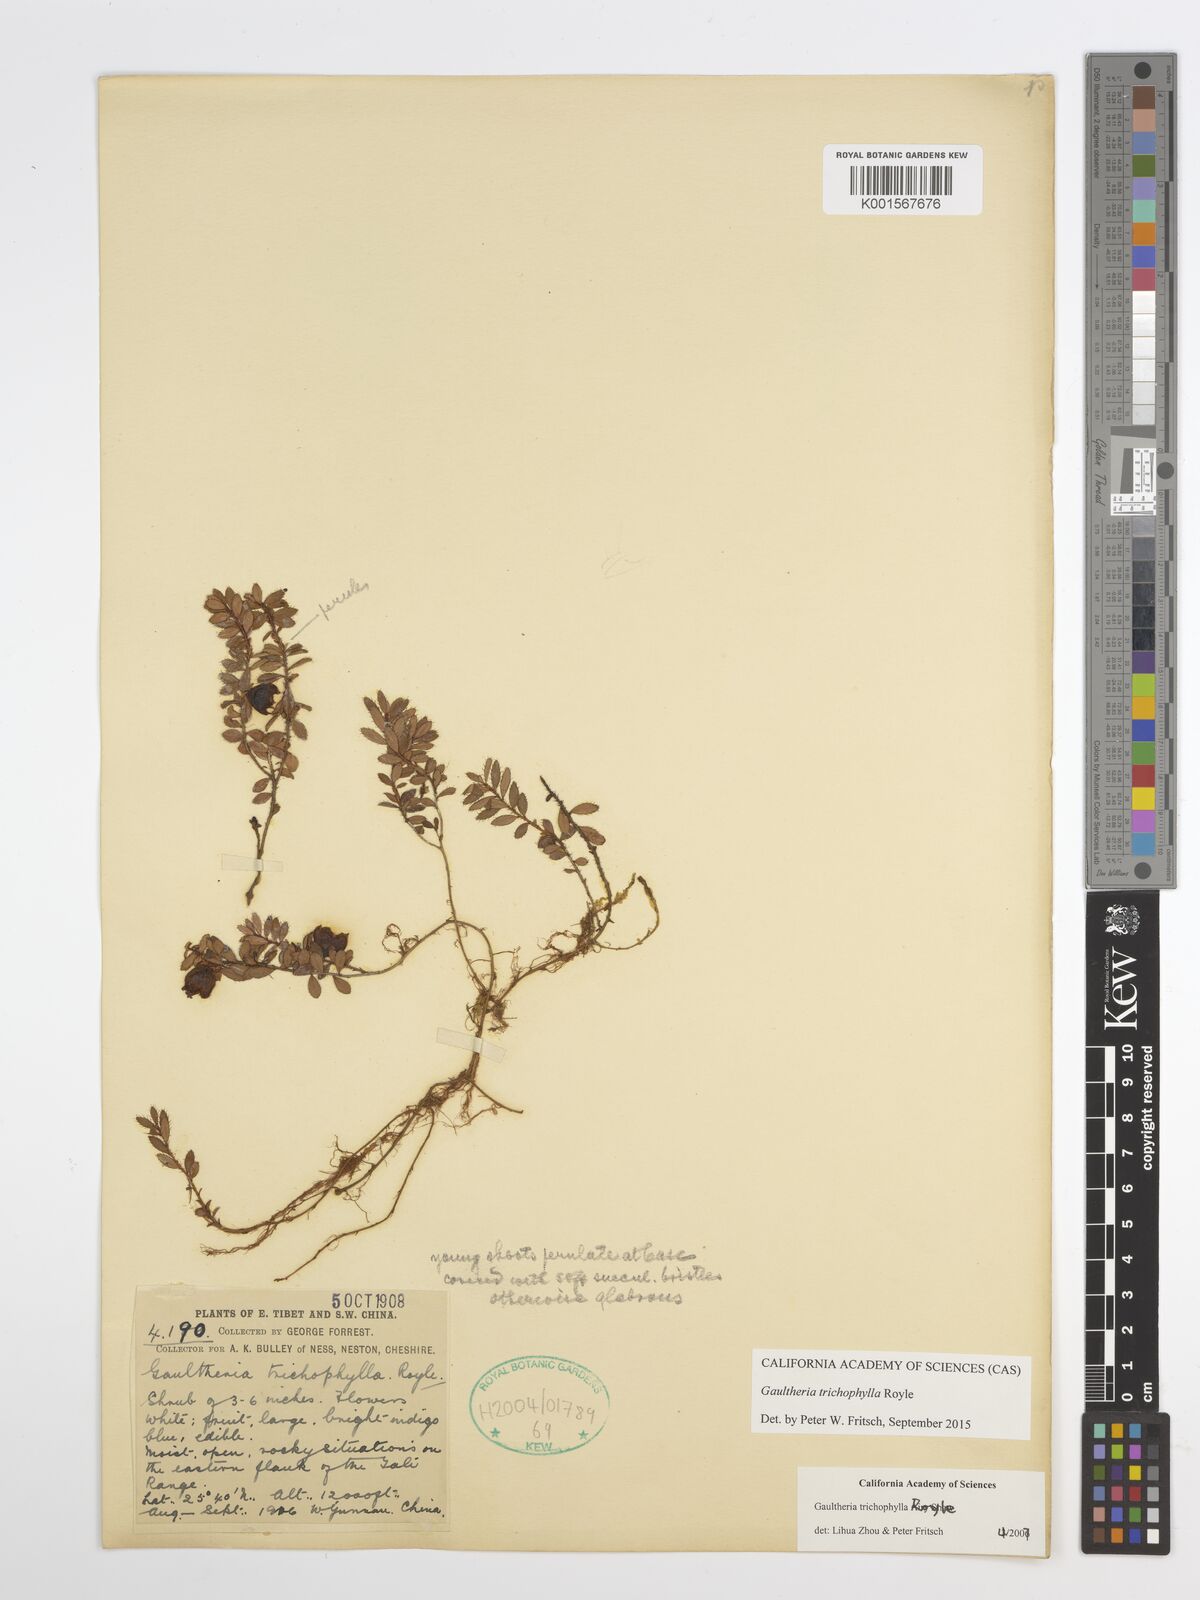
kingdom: Plantae
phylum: Tracheophyta
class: Magnoliopsida
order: Ericales
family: Ericaceae
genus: Gaultheria
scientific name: Gaultheria trichophylla
